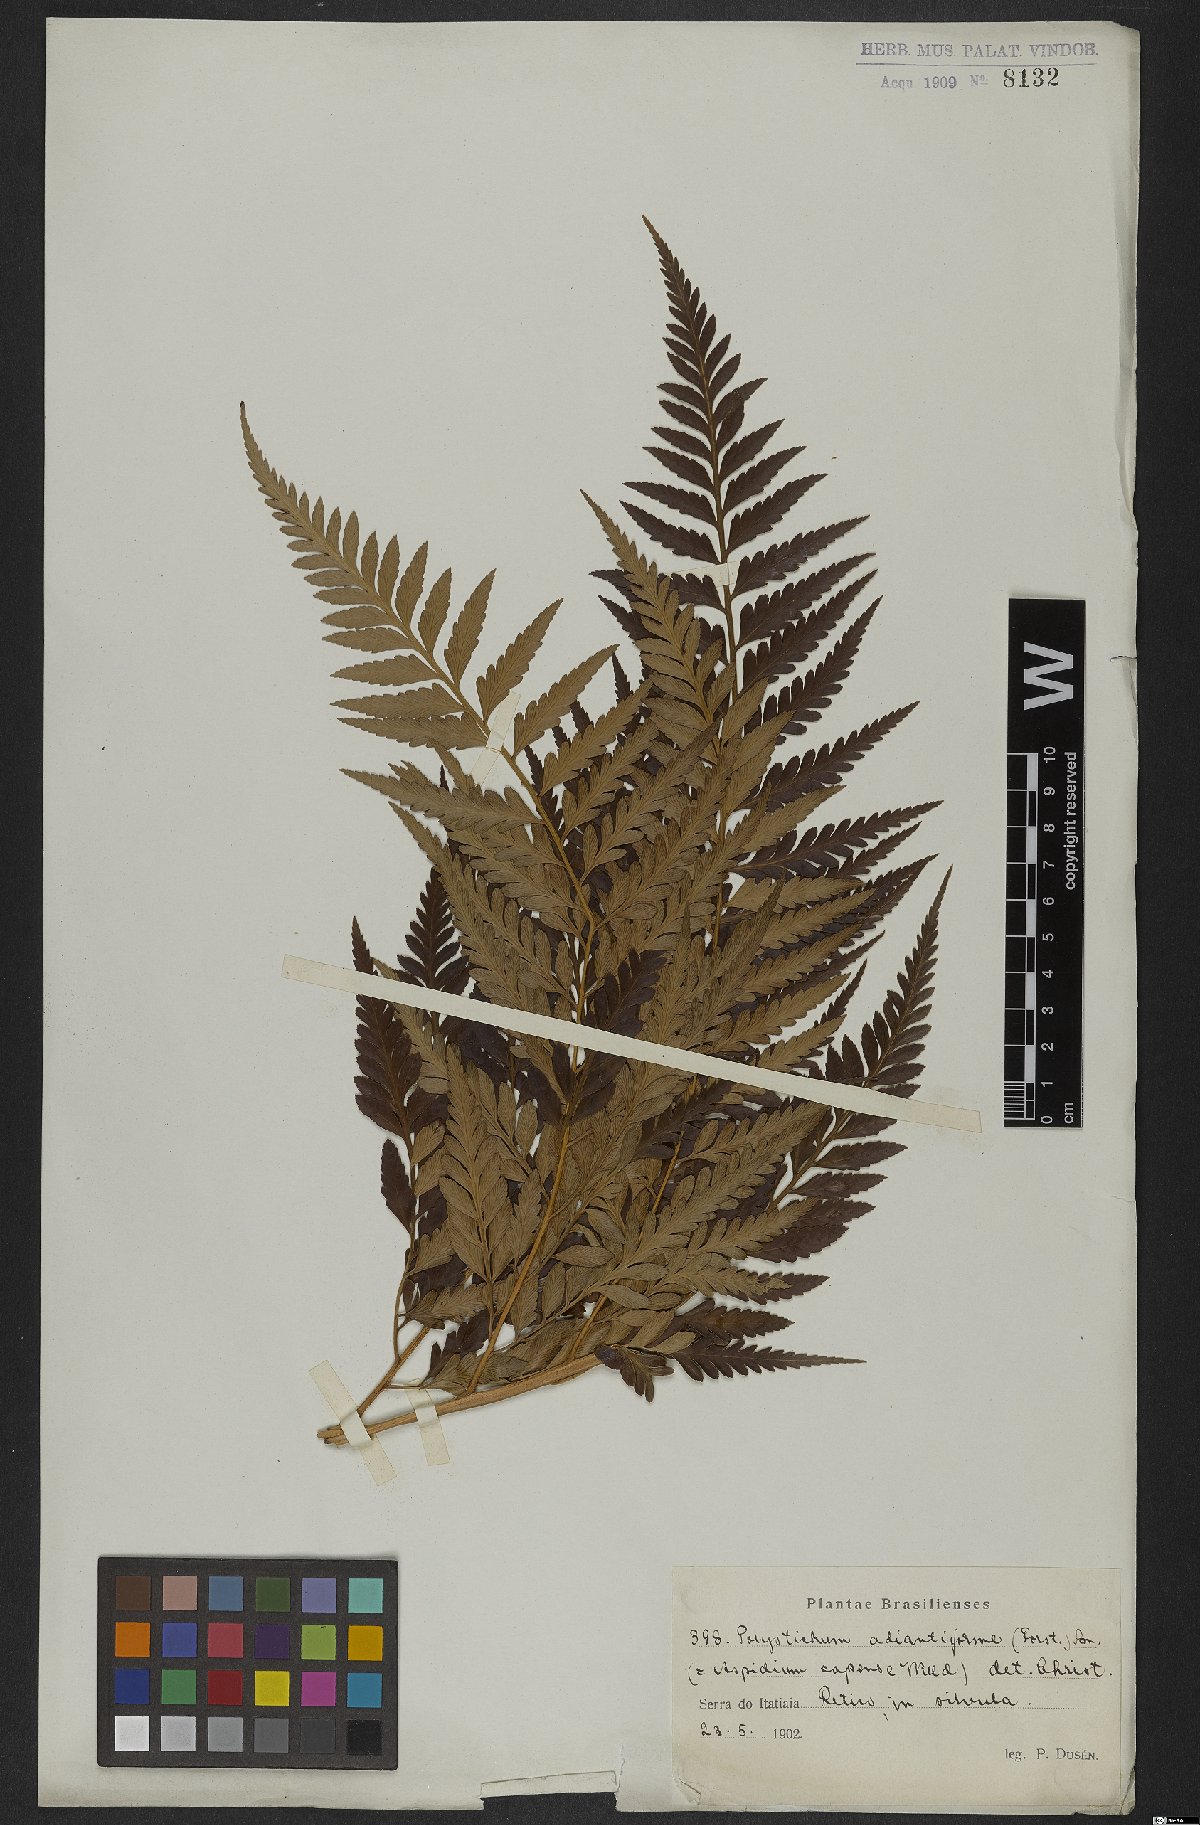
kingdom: Plantae
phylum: Tracheophyta
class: Polypodiopsida
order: Polypodiales
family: Dryopteridaceae
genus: Rumohra
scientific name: Rumohra adiantiformis
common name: Leather fern
